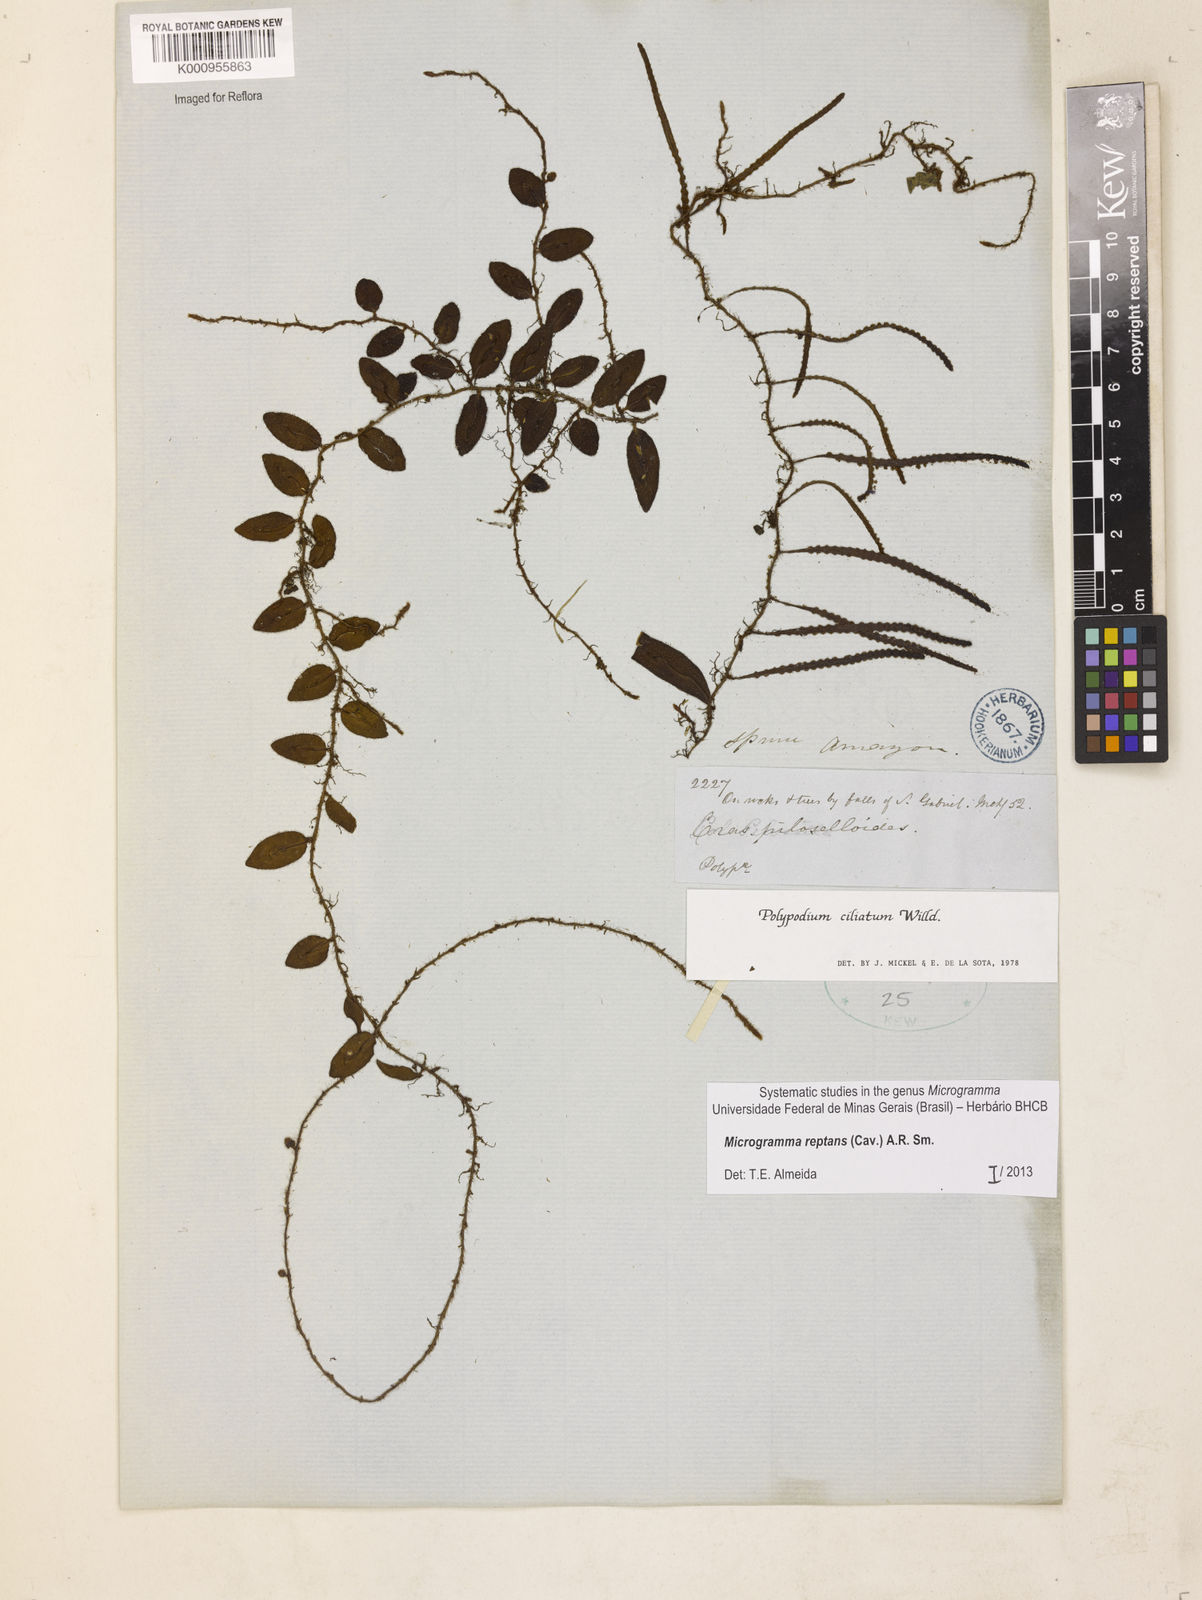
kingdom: Plantae
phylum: Tracheophyta
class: Polypodiopsida
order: Polypodiales
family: Polypodiaceae
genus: Microgramma
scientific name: Microgramma reptans
